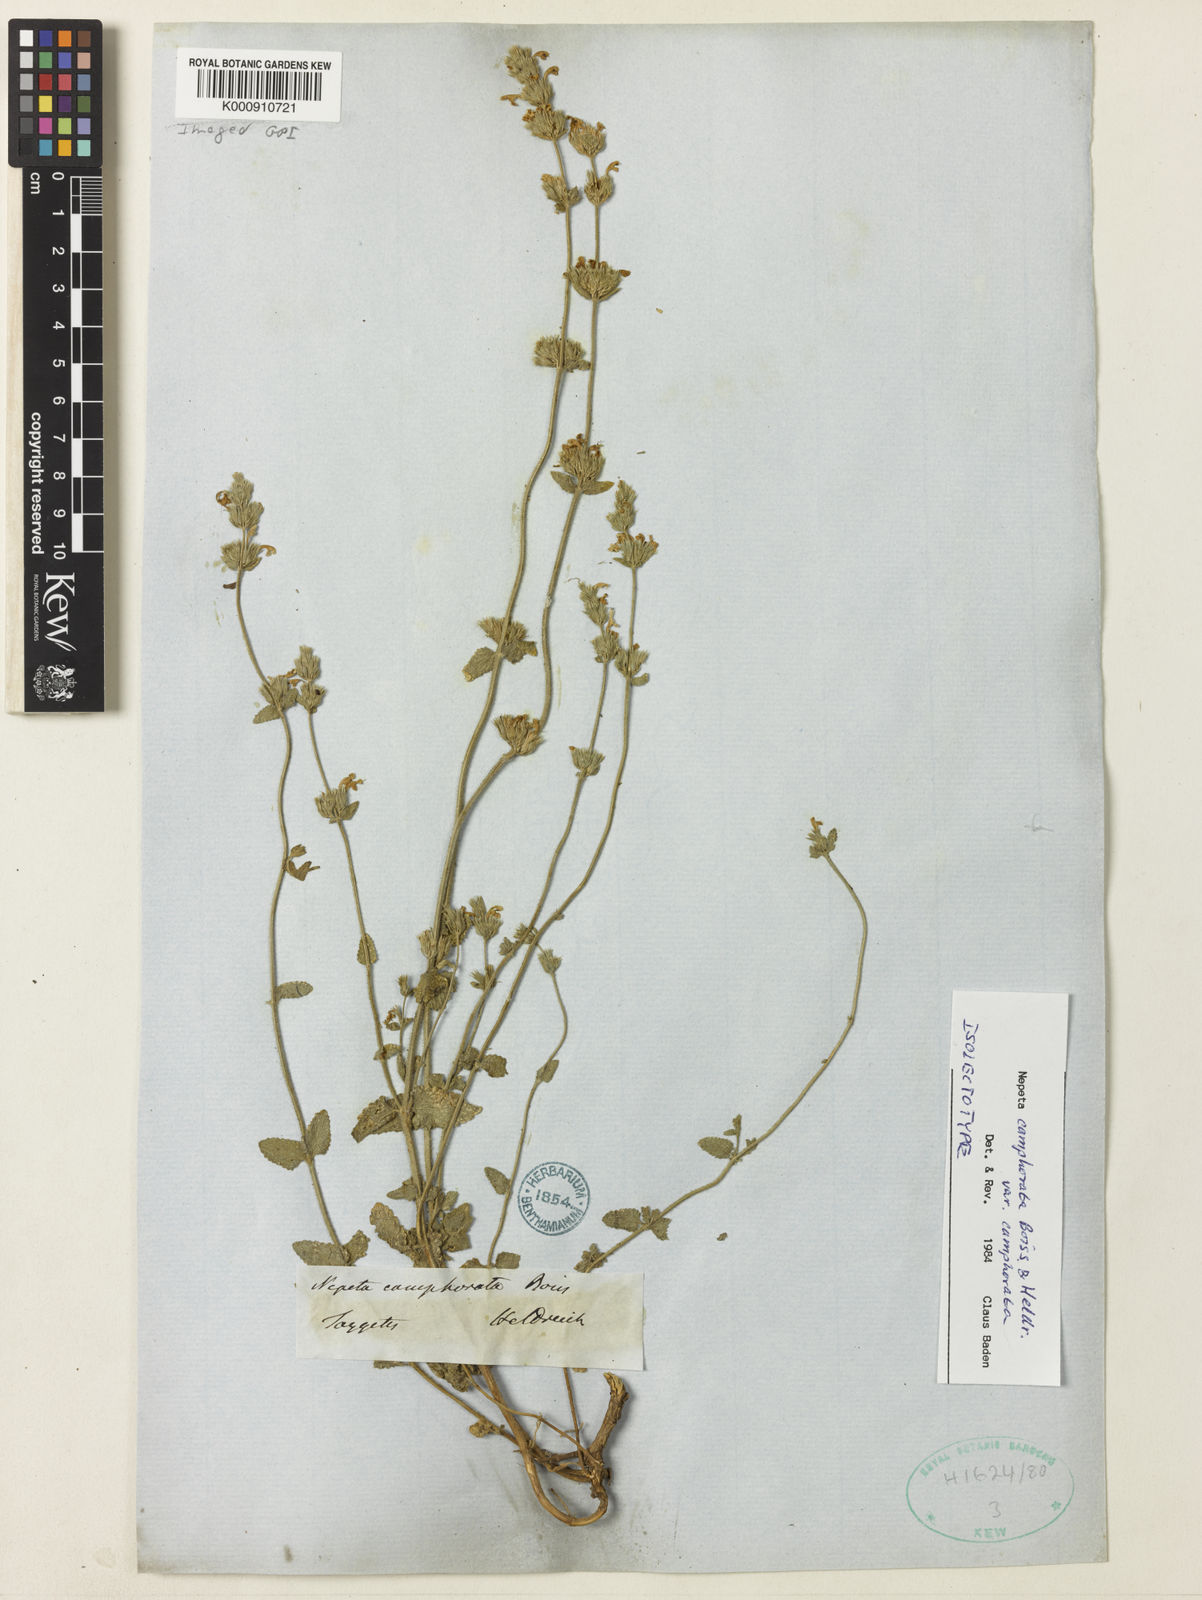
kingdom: Plantae
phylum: Tracheophyta
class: Magnoliopsida
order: Lamiales
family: Lamiaceae
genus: Nepeta
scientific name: Nepeta camphorata
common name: Camphor catmint
